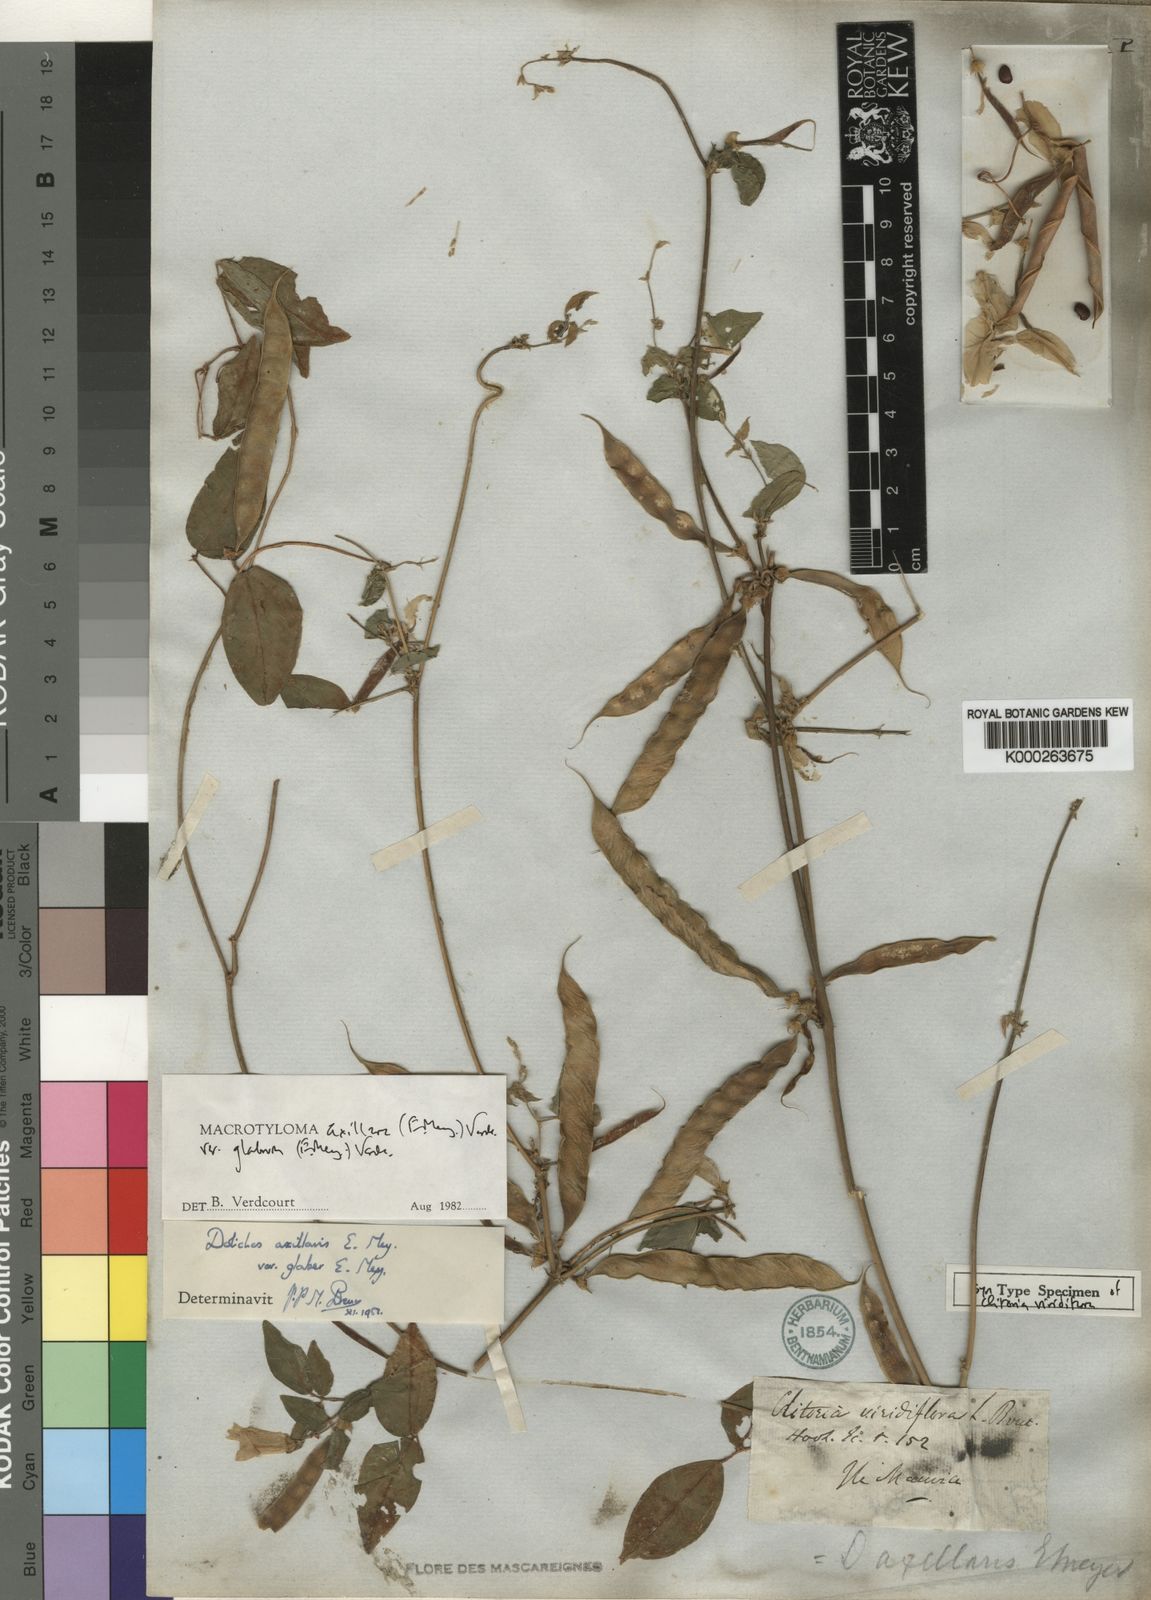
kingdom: Plantae
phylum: Tracheophyta
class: Magnoliopsida
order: Fabales
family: Fabaceae
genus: Macrotyloma
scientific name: Macrotyloma axillare
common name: Perennial horsegram
